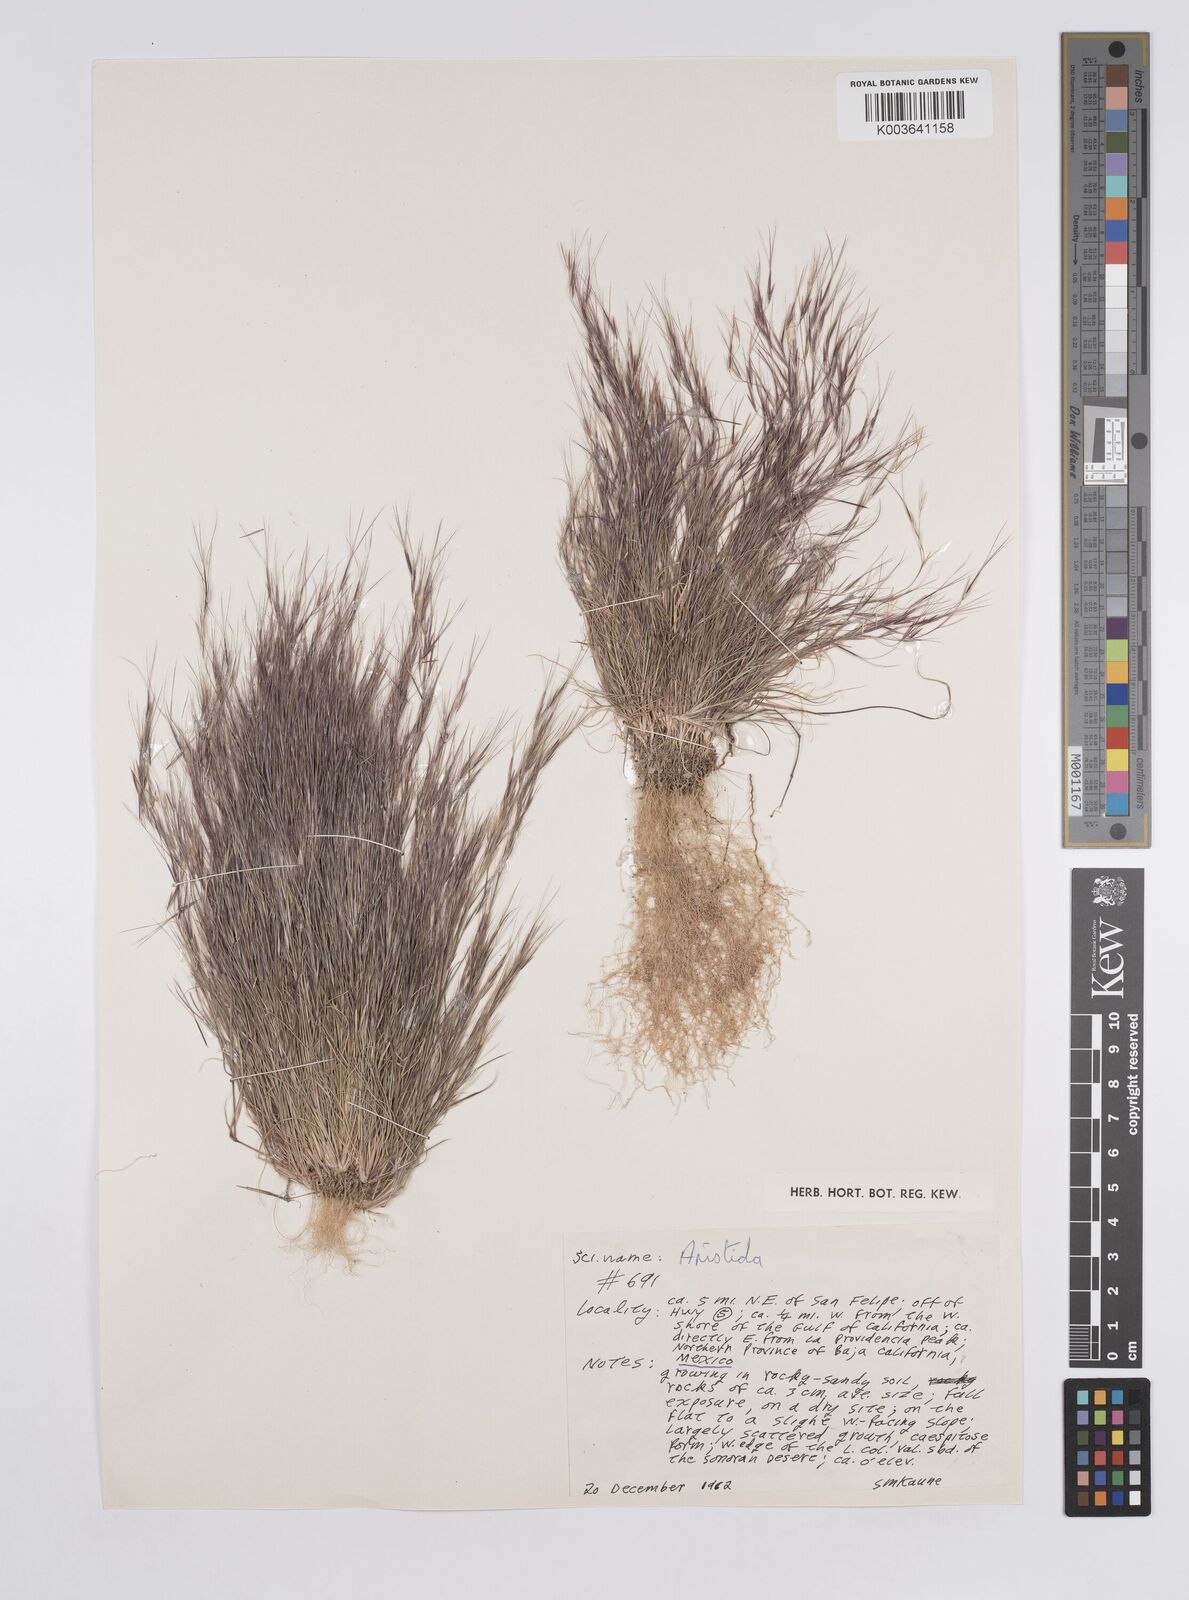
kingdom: Plantae
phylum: Tracheophyta
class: Liliopsida
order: Poales
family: Poaceae
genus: Aristida
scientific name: Aristida
